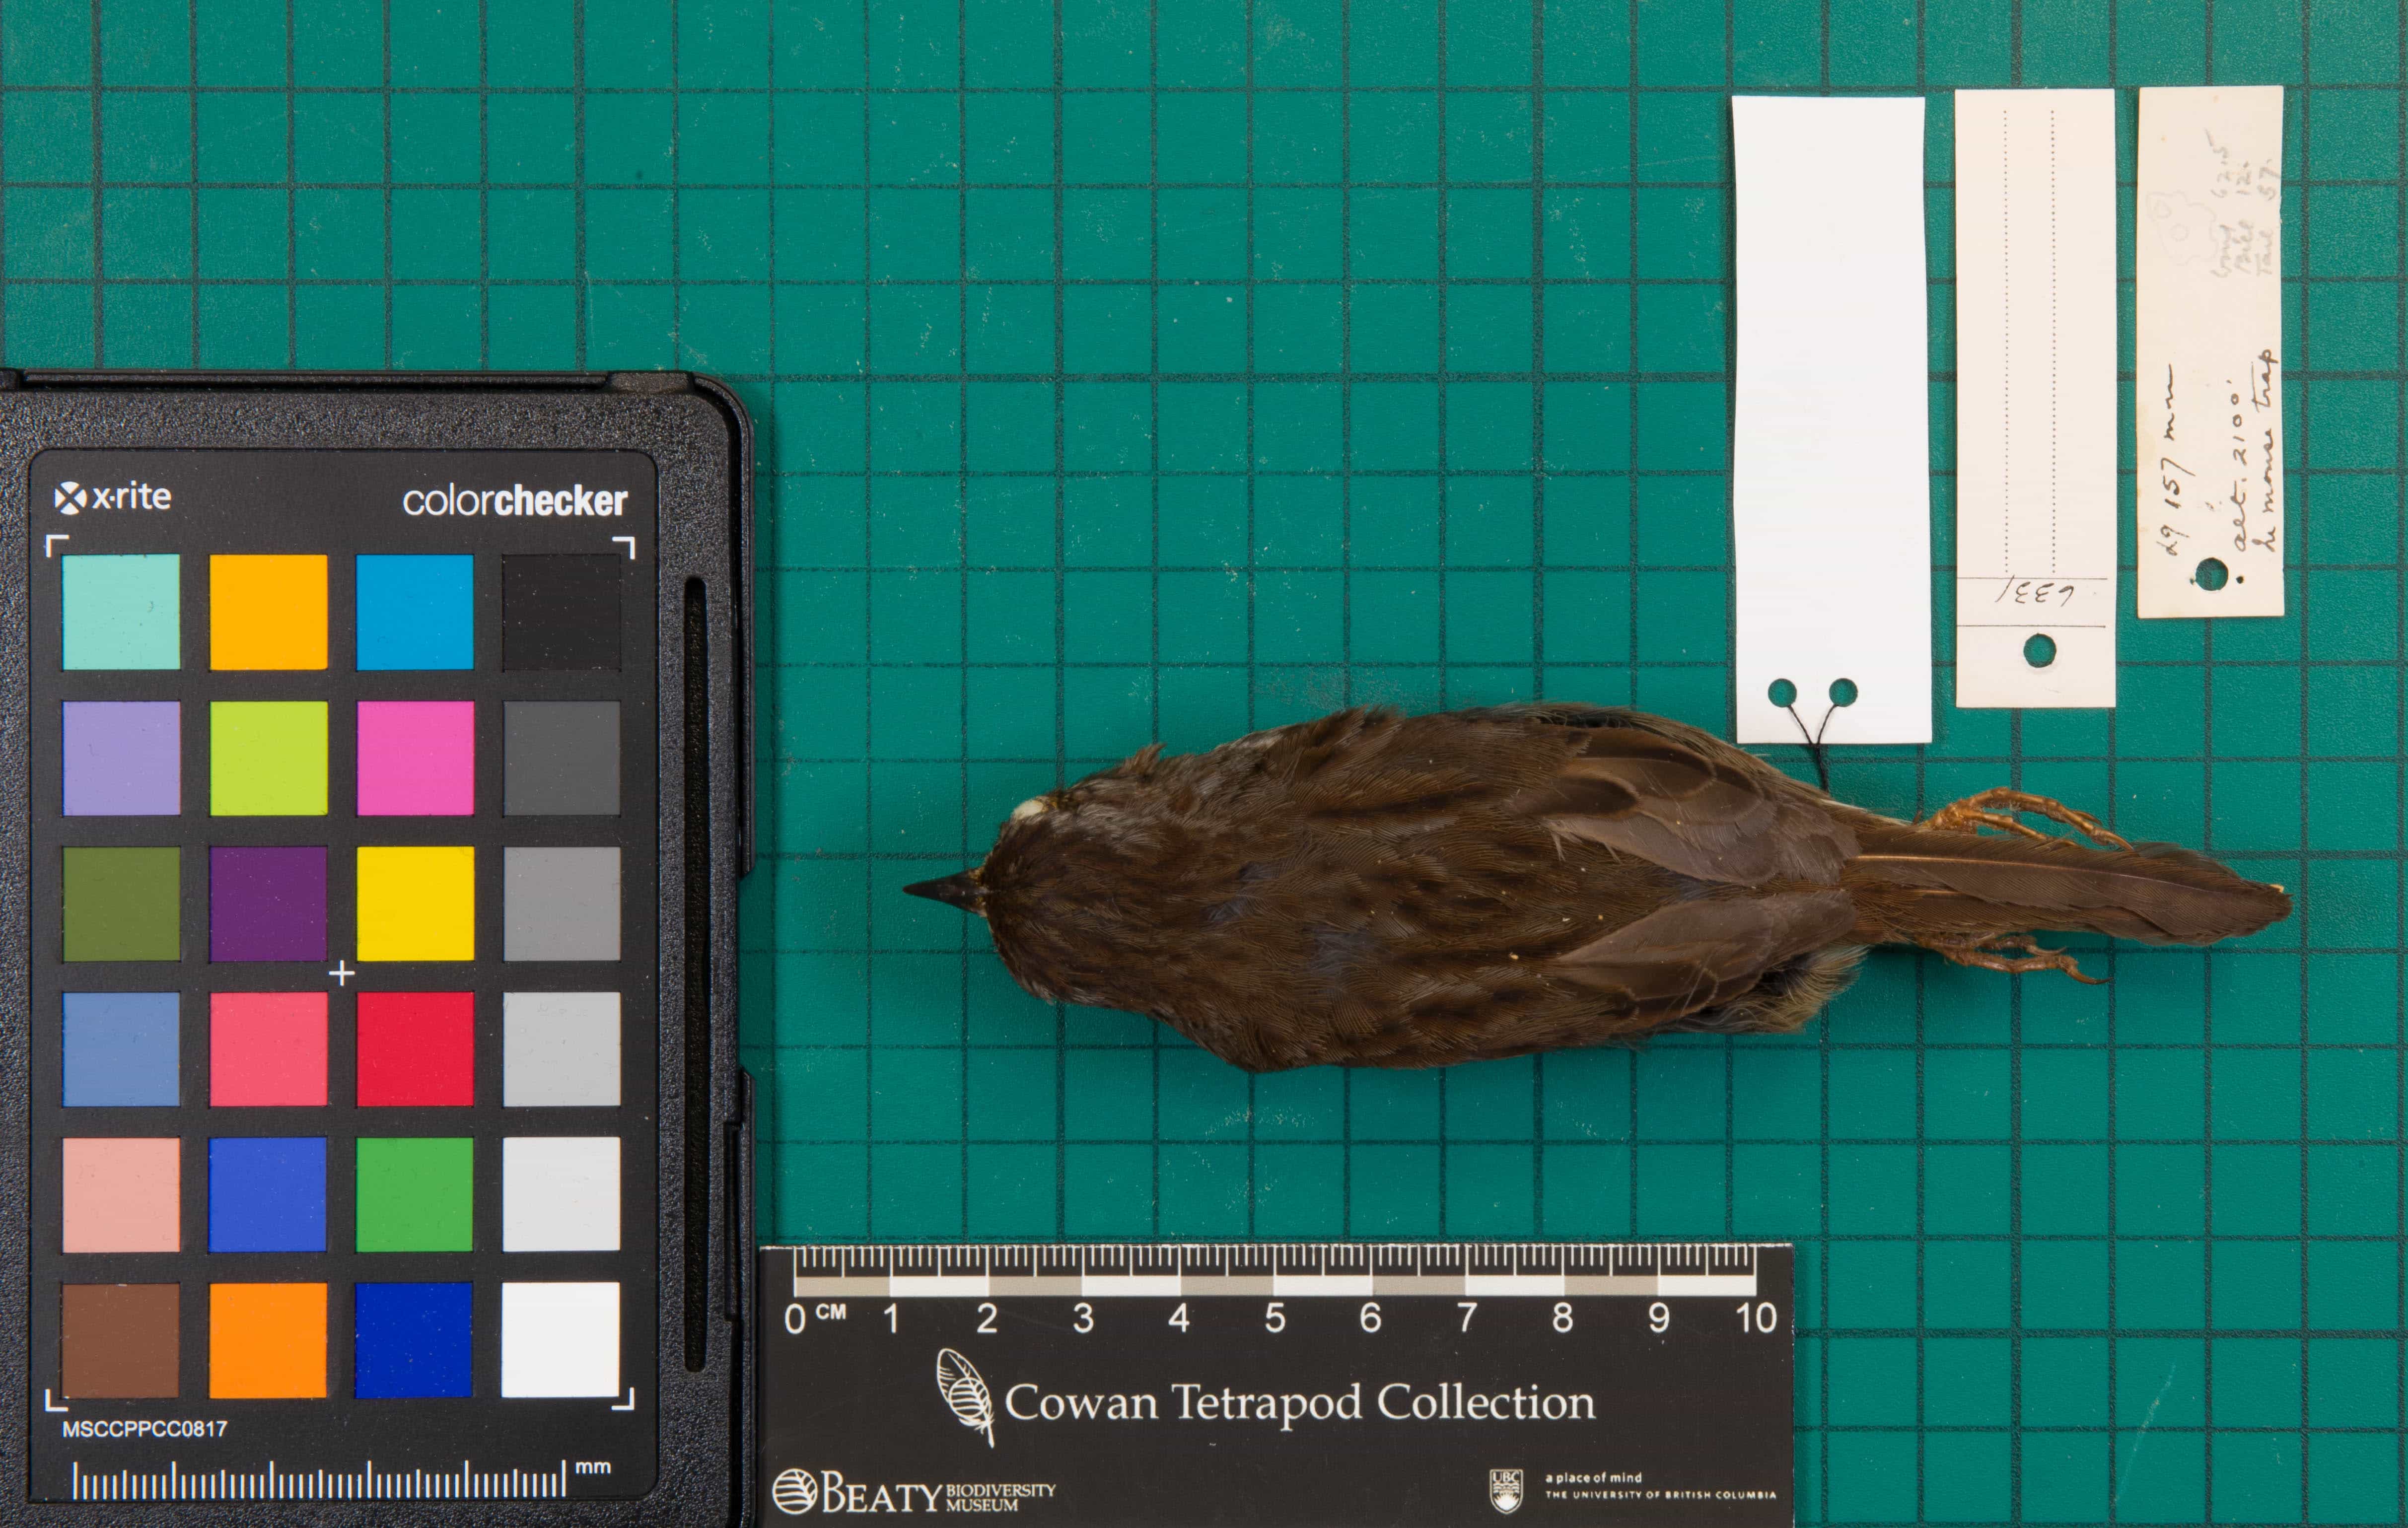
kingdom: Animalia
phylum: Chordata
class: Aves
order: Passeriformes
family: Passerellidae
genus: Melospiza
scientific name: Melospiza melodia
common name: Song Sparrow
